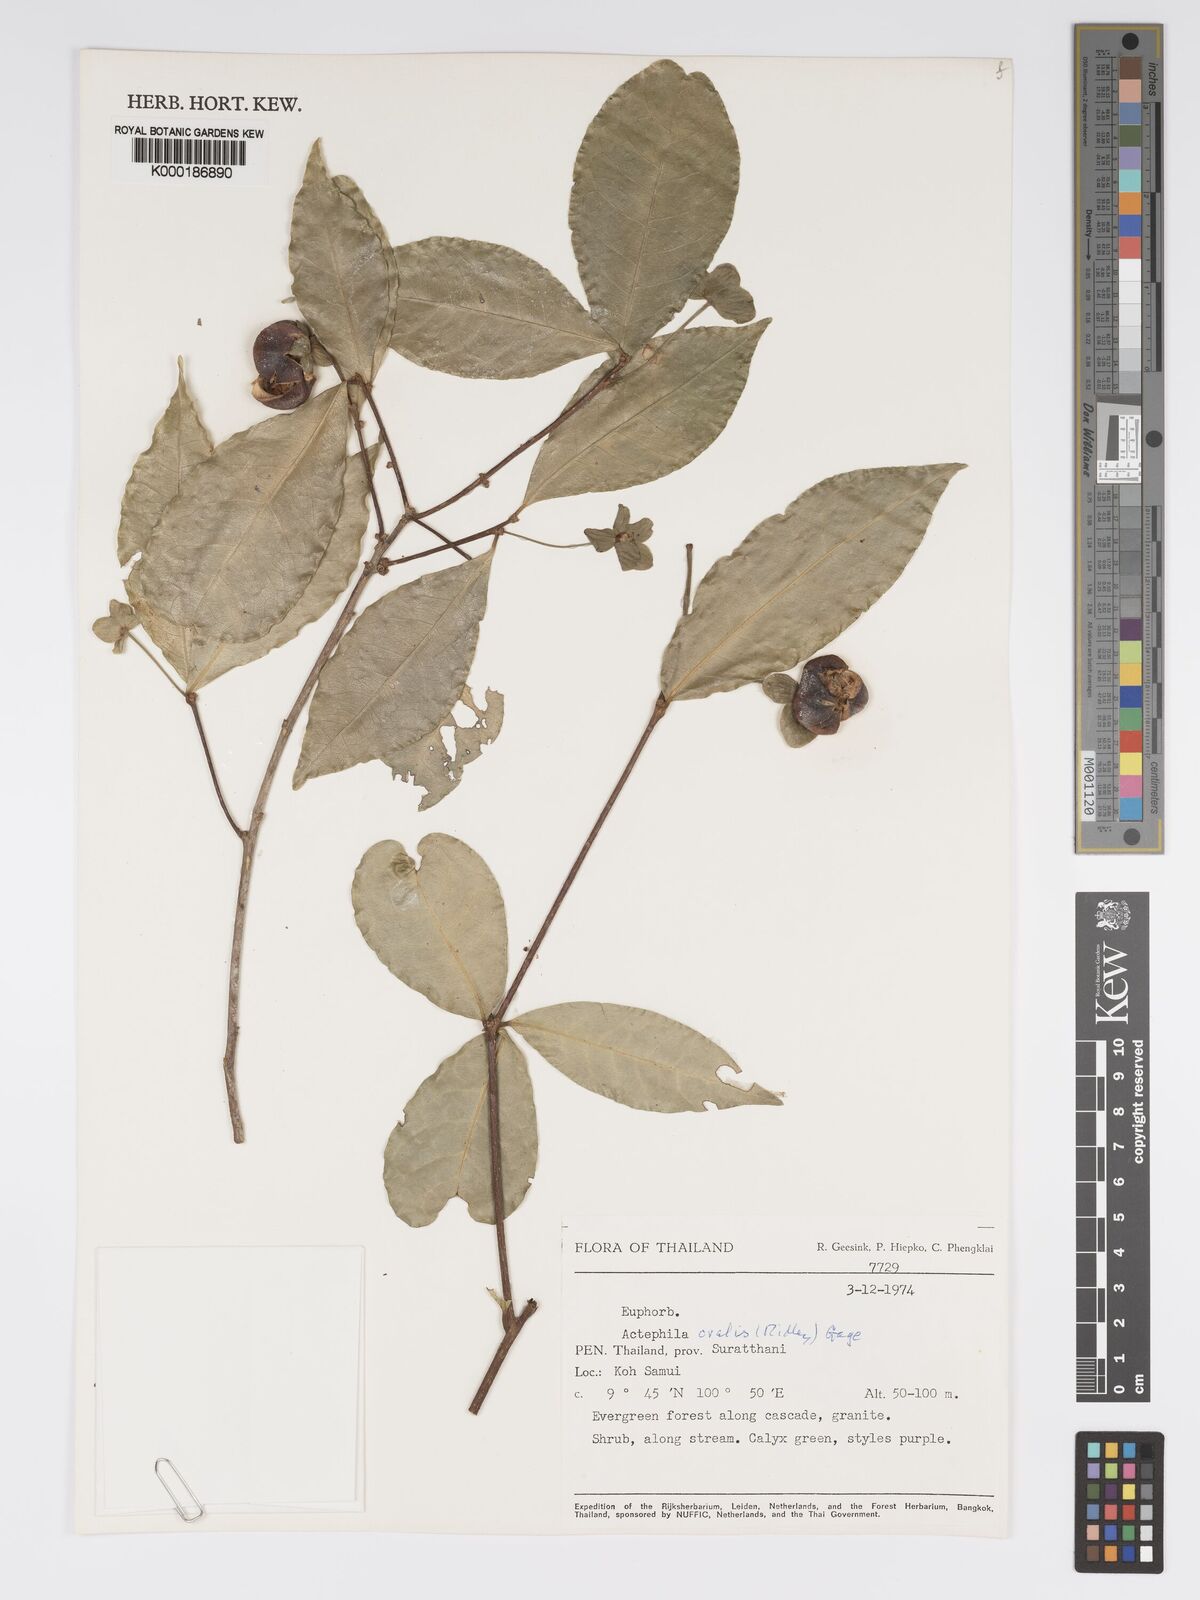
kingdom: Plantae
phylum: Tracheophyta
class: Magnoliopsida
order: Malpighiales
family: Phyllanthaceae
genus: Actephila
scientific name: Actephila ovalis
